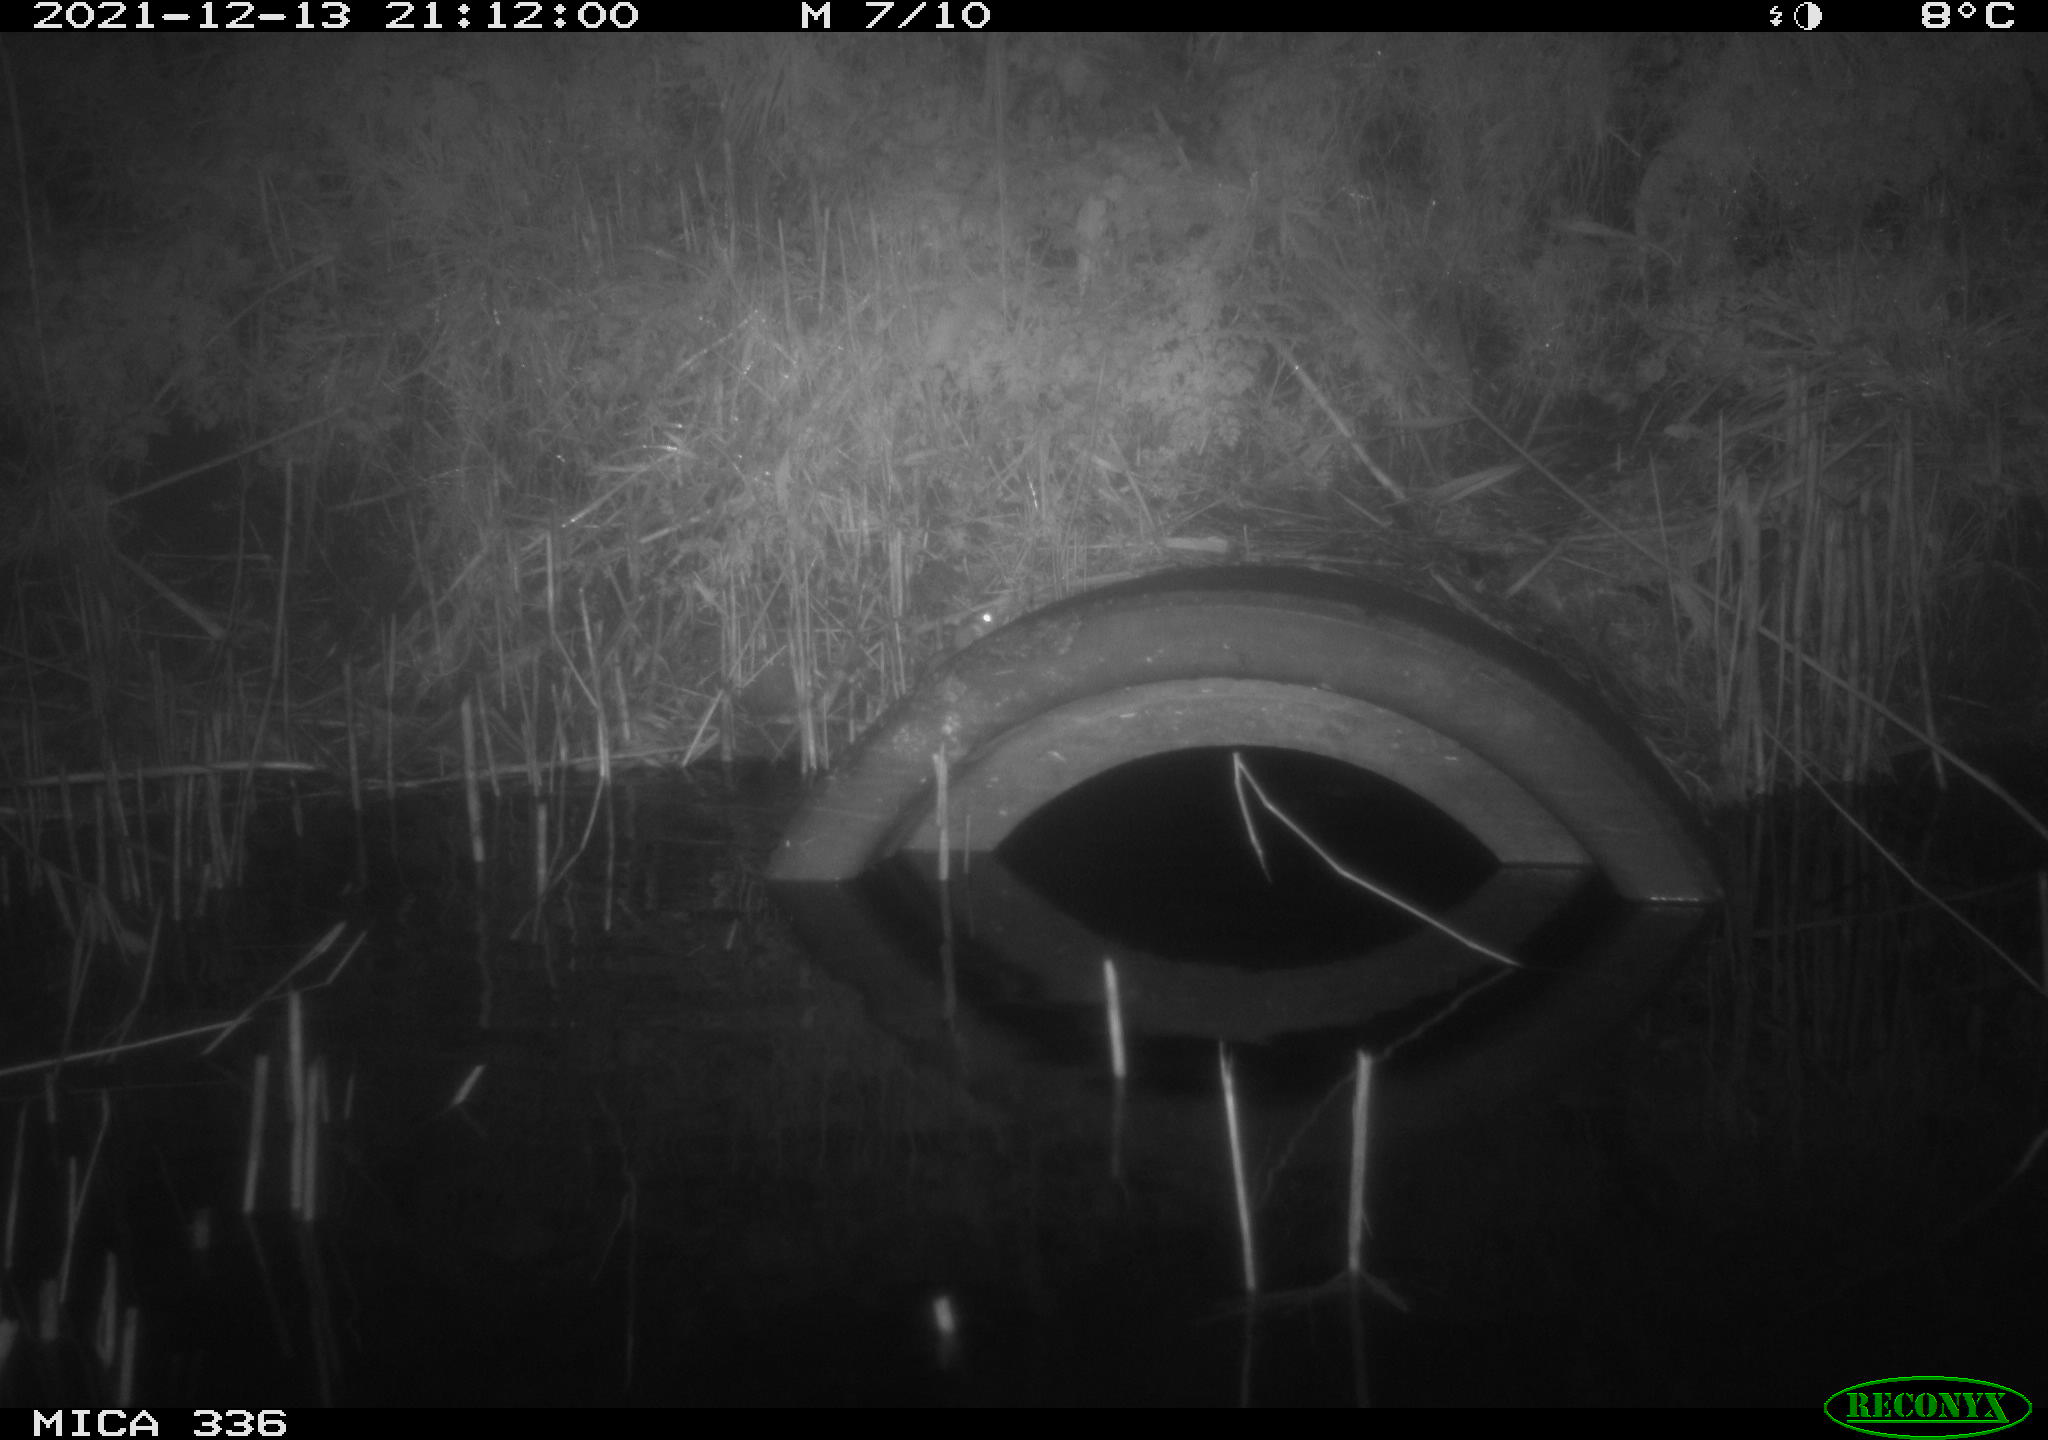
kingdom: Animalia
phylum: Chordata
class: Mammalia
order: Rodentia
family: Muridae
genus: Rattus
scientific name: Rattus norvegicus
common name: Brown rat
